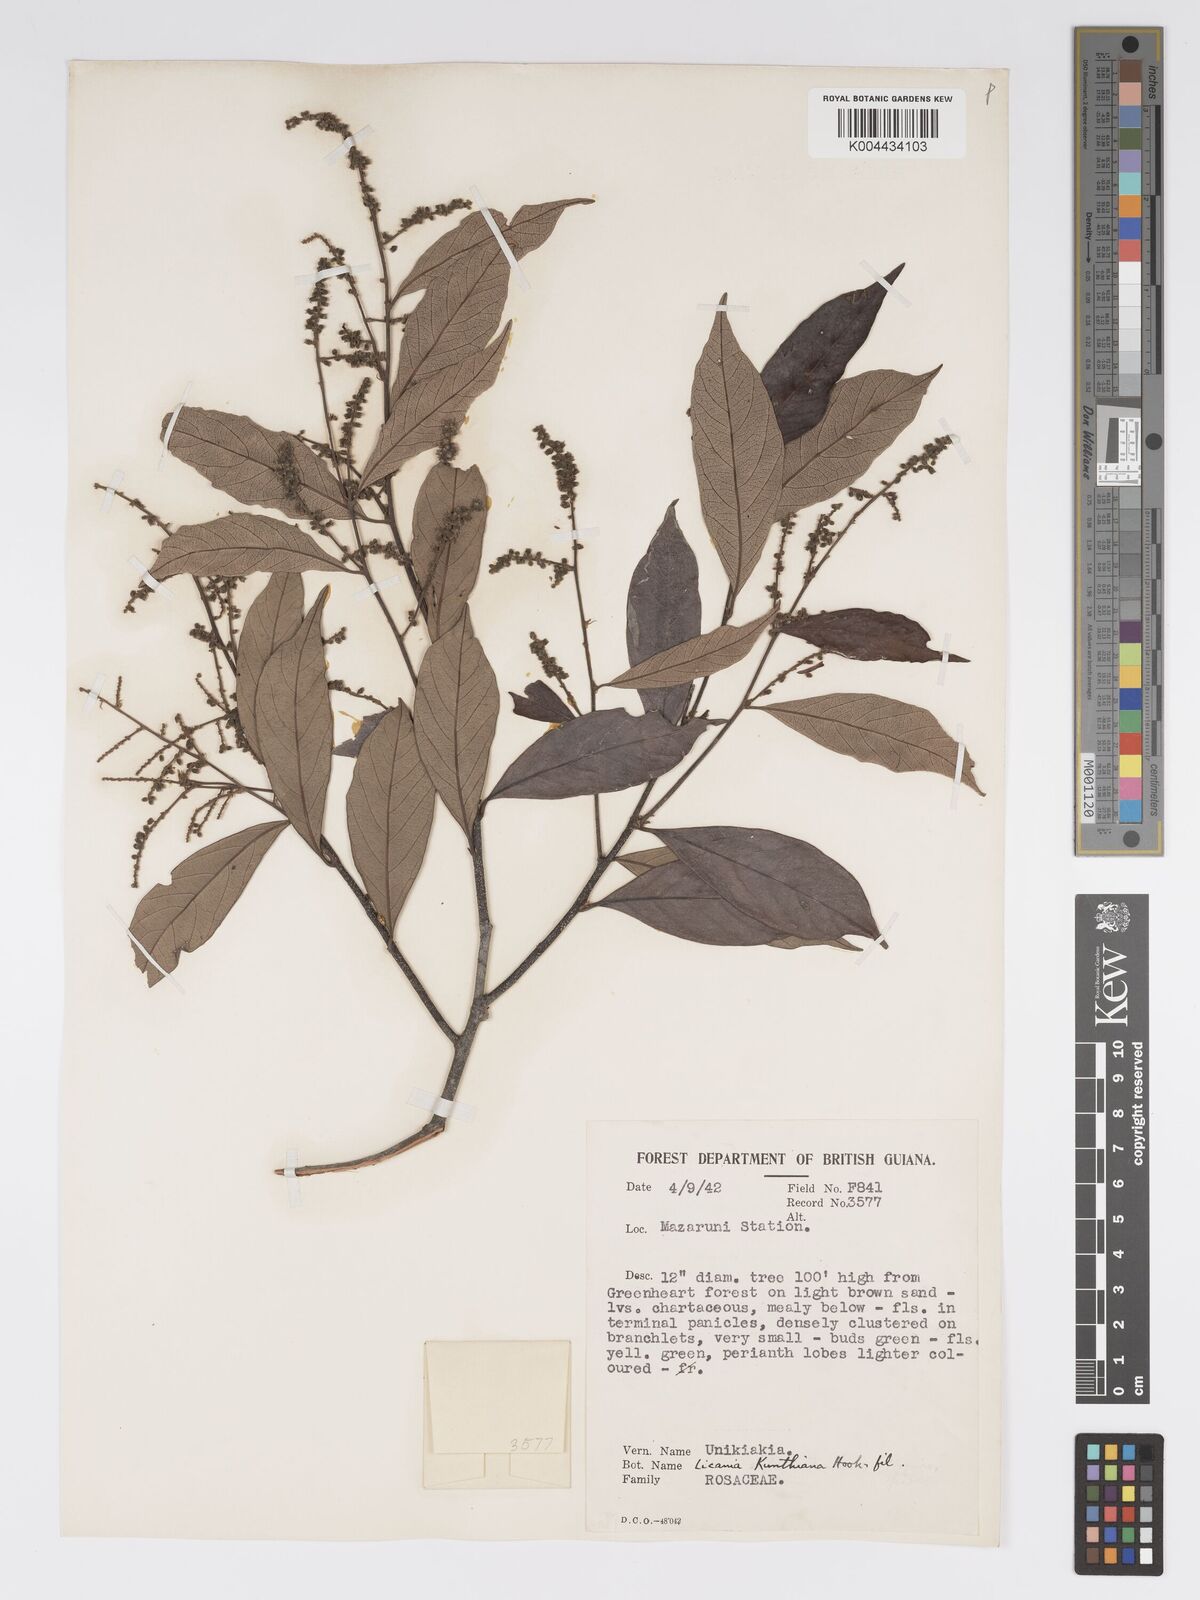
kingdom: Plantae
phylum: Tracheophyta
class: Magnoliopsida
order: Malpighiales
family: Chrysobalanaceae
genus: Licania
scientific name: Licania kunthiana
